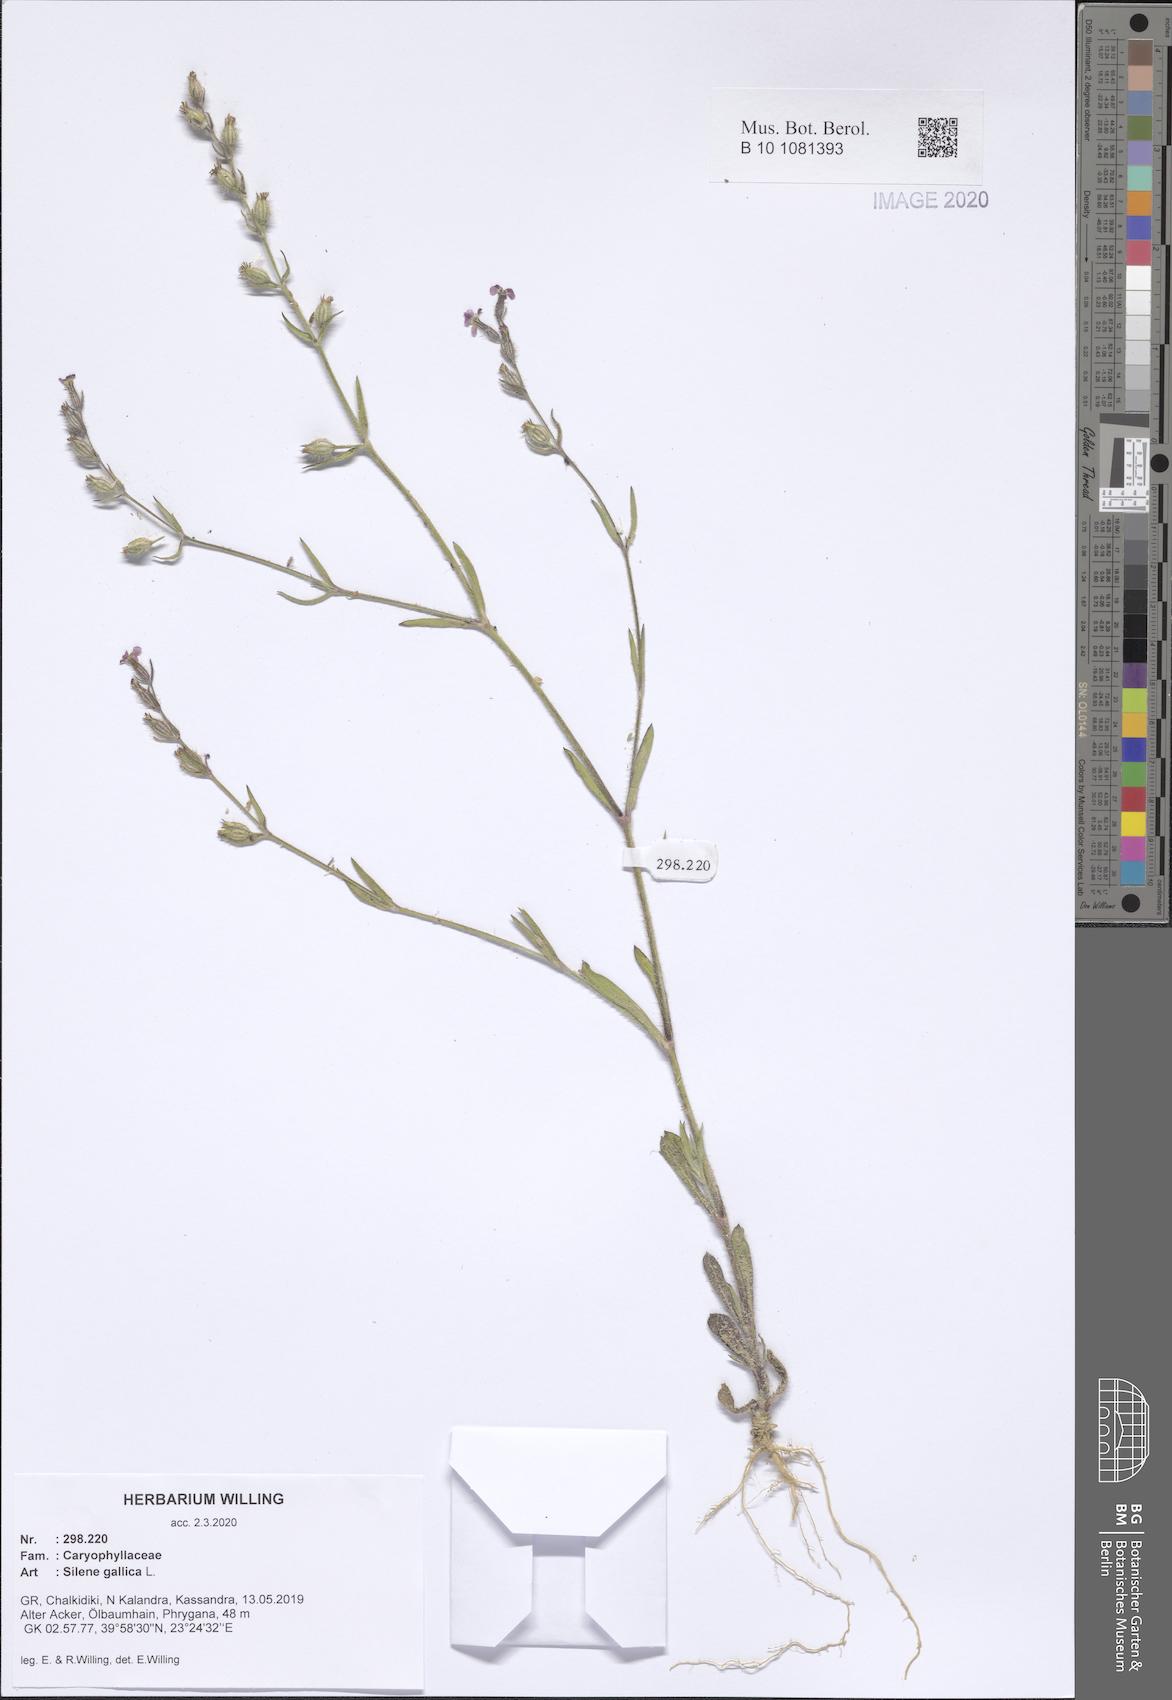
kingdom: Plantae
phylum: Tracheophyta
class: Magnoliopsida
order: Caryophyllales
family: Caryophyllaceae
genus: Silene
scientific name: Silene gallica
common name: Small-flowered catchfly
